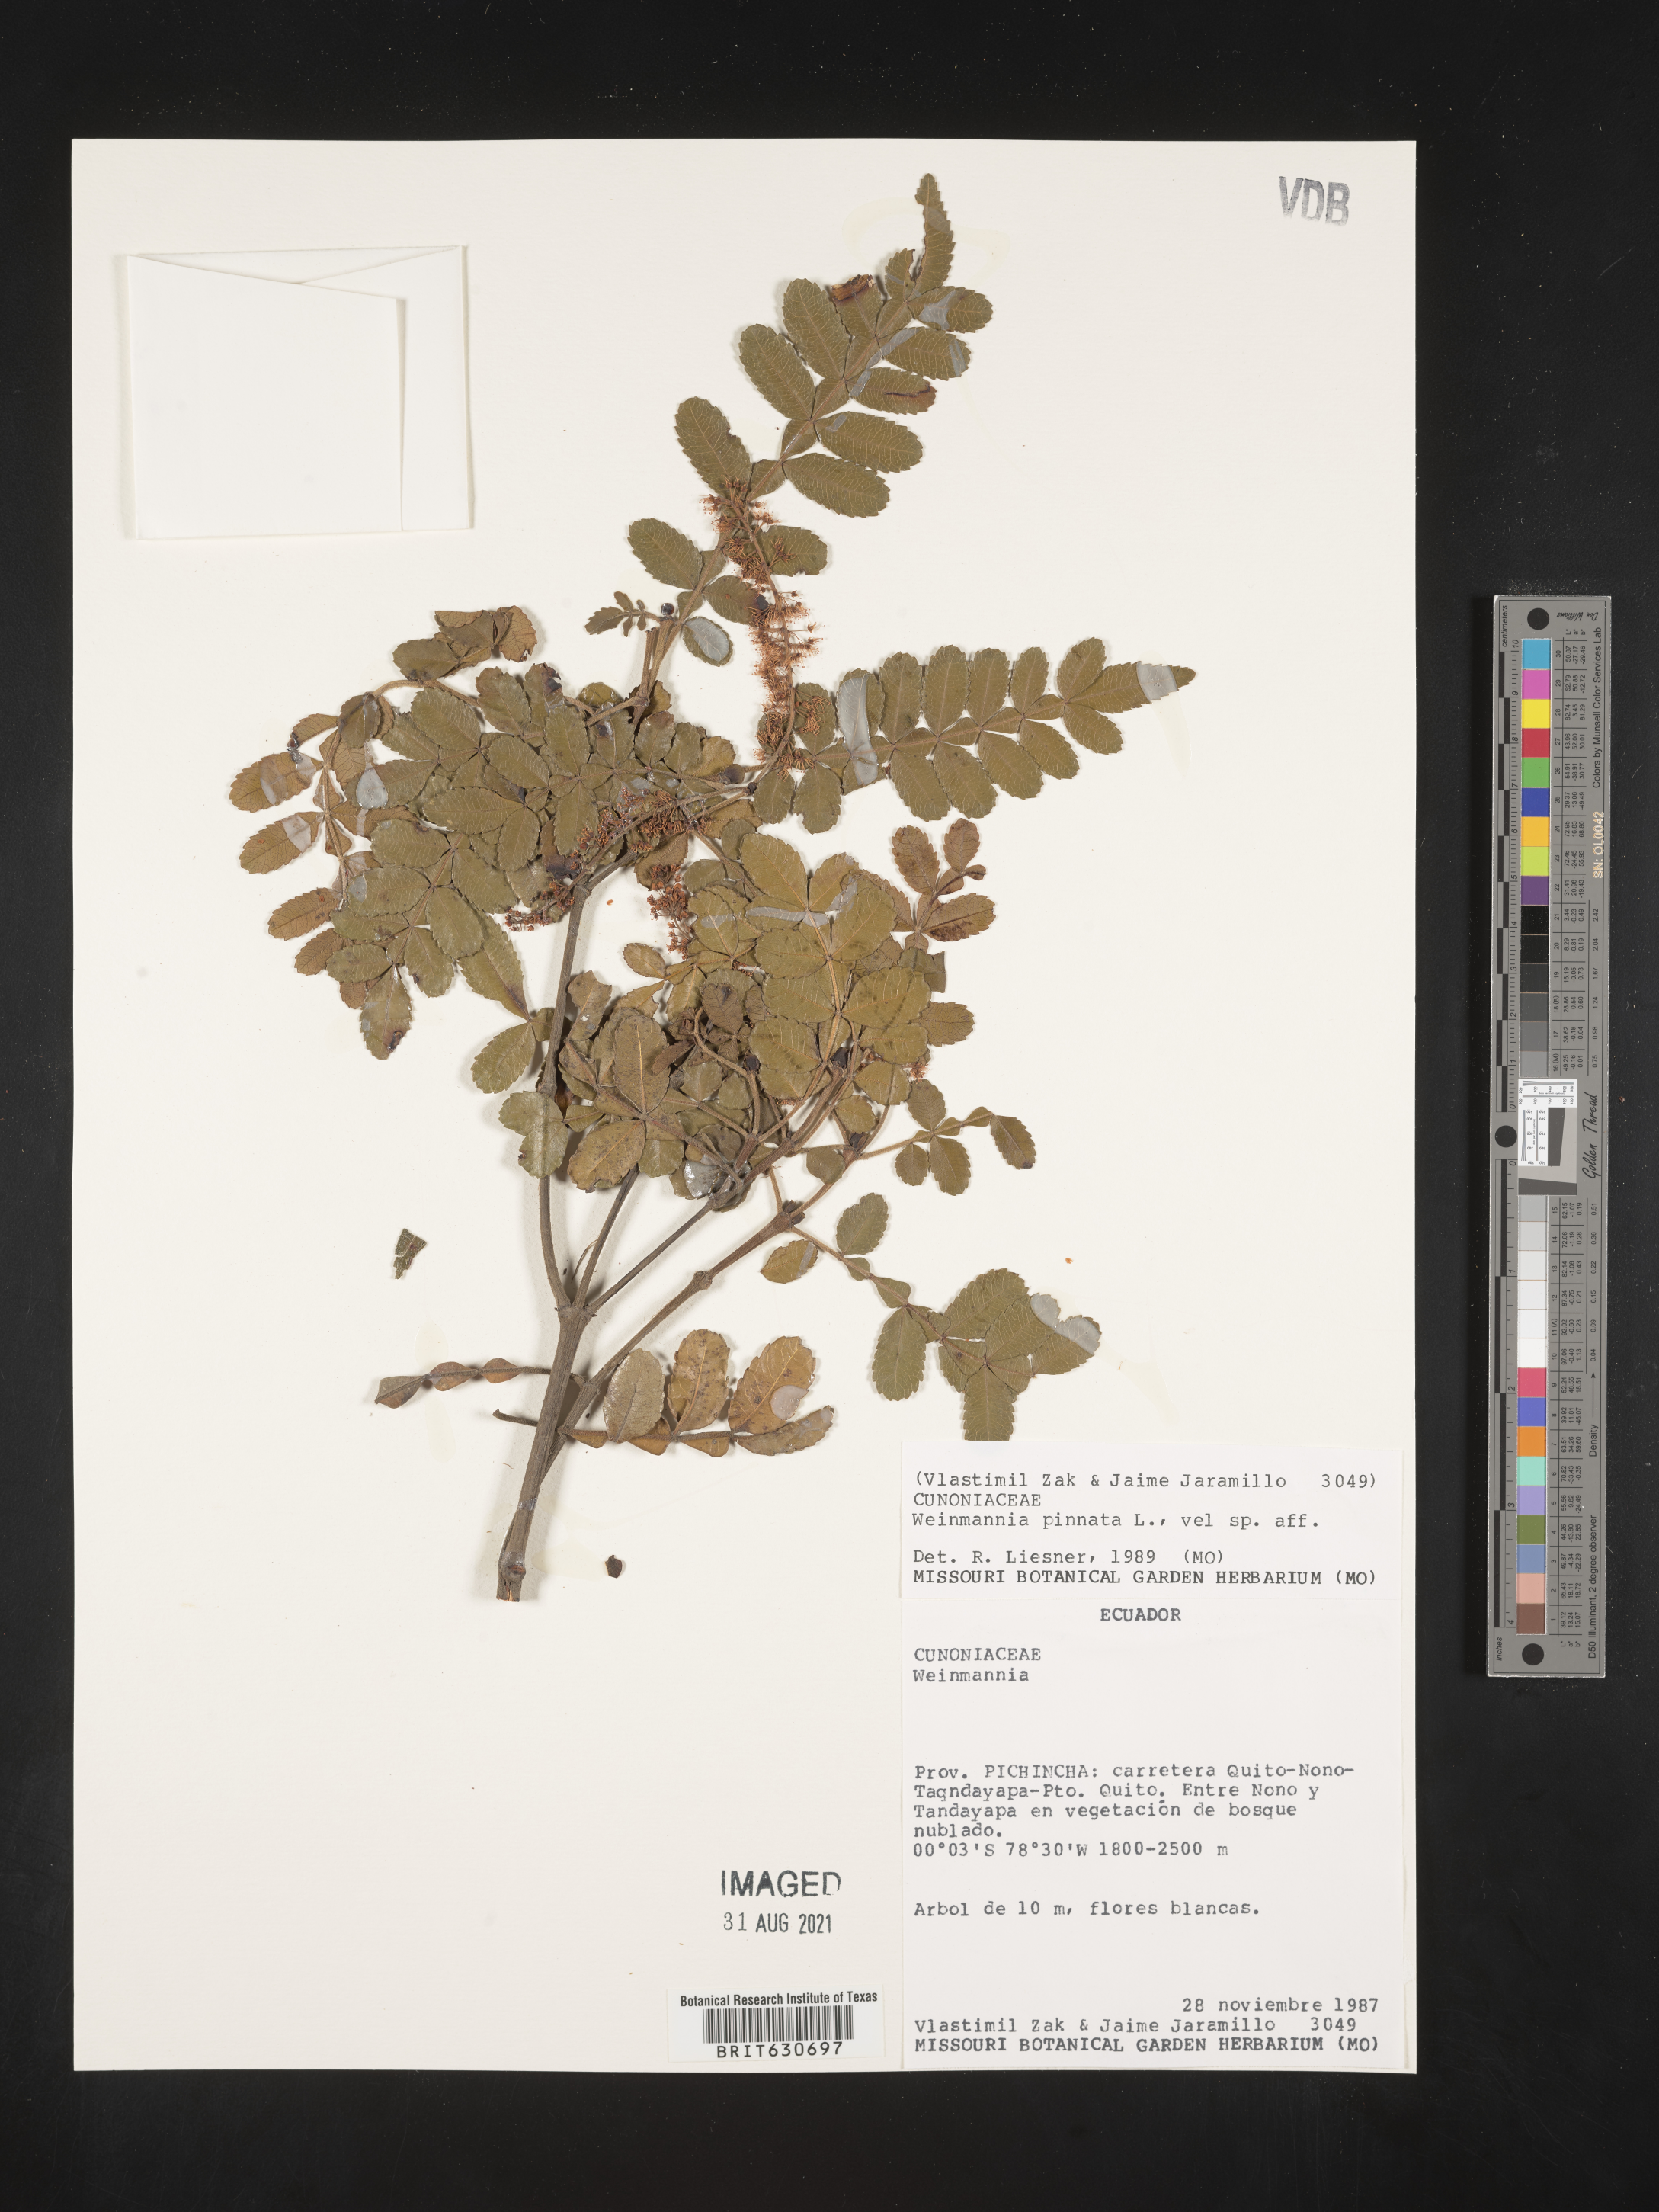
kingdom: Plantae
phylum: Tracheophyta
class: Magnoliopsida
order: Oxalidales
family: Cunoniaceae
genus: Weinmannia
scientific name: Weinmannia cinerea
